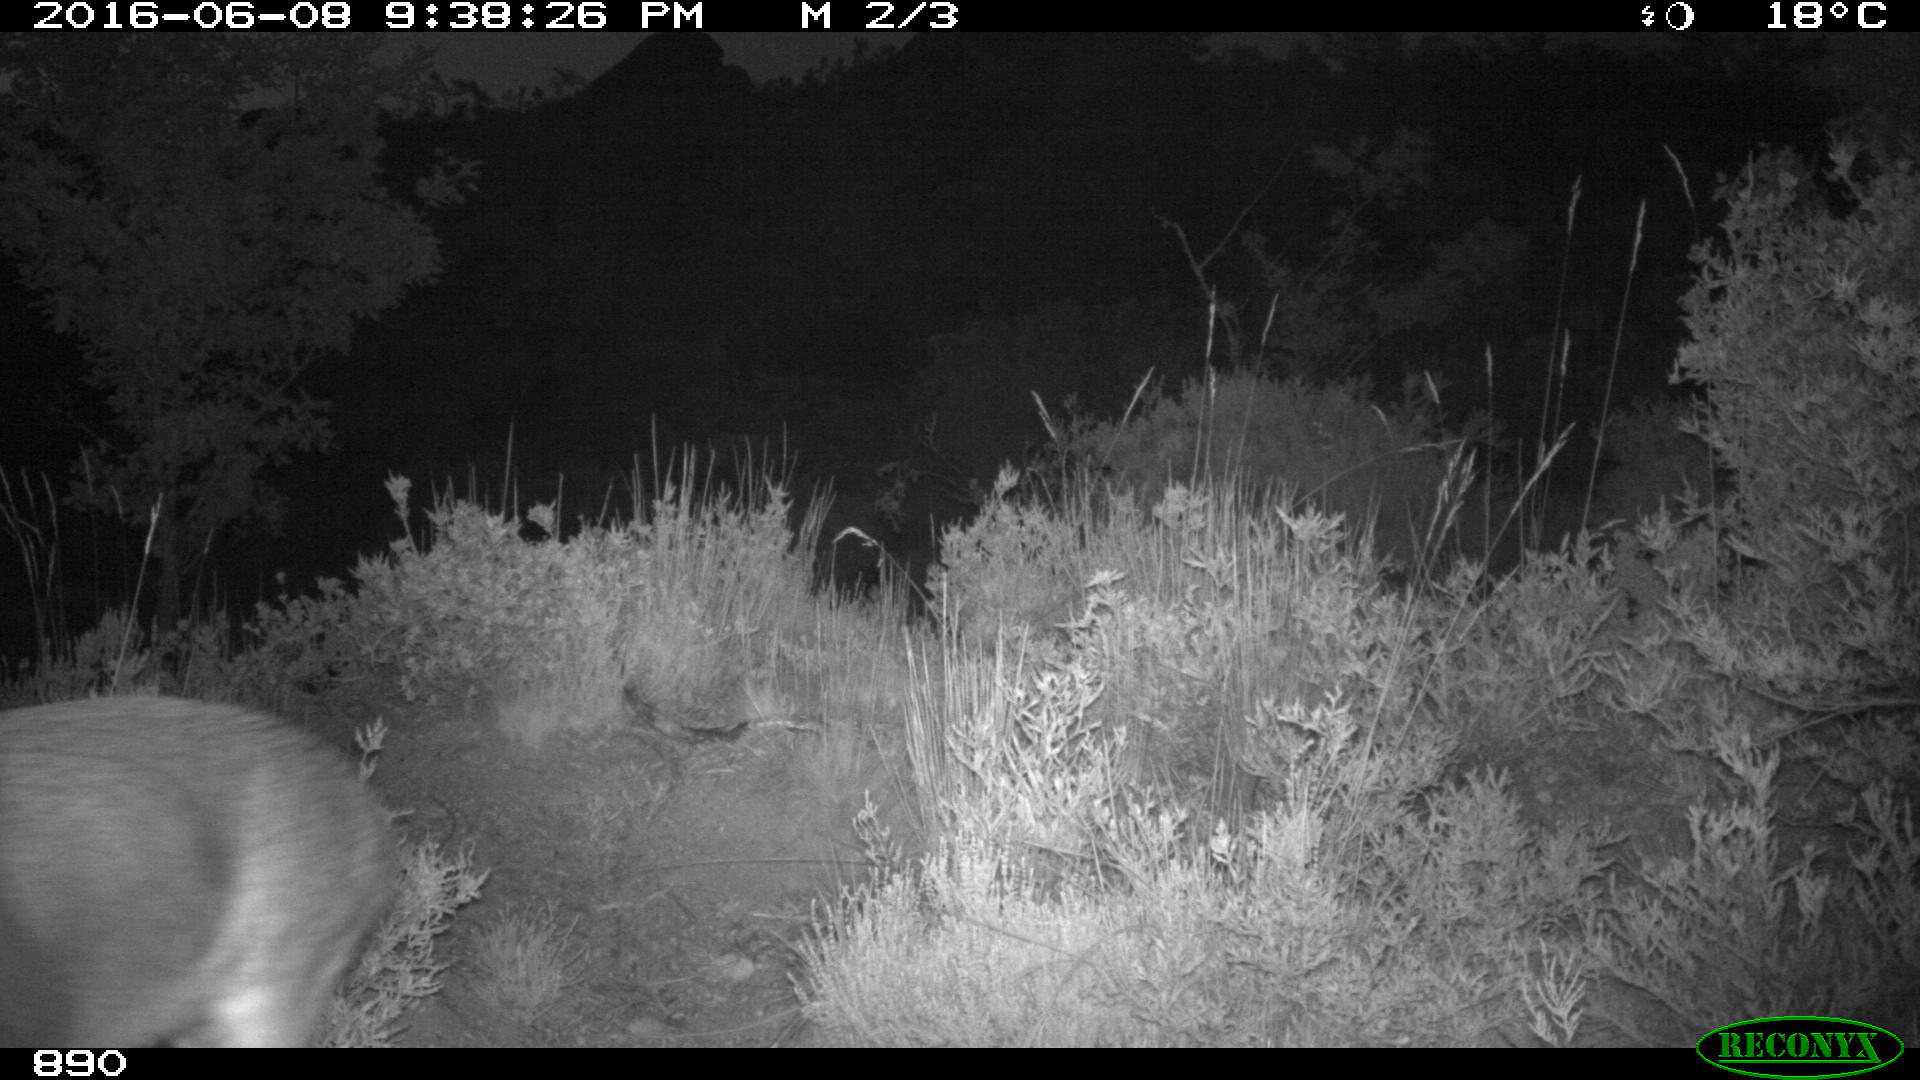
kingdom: Animalia
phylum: Chordata
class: Mammalia
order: Artiodactyla
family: Cervidae
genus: Capreolus
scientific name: Capreolus capreolus
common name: Western roe deer
